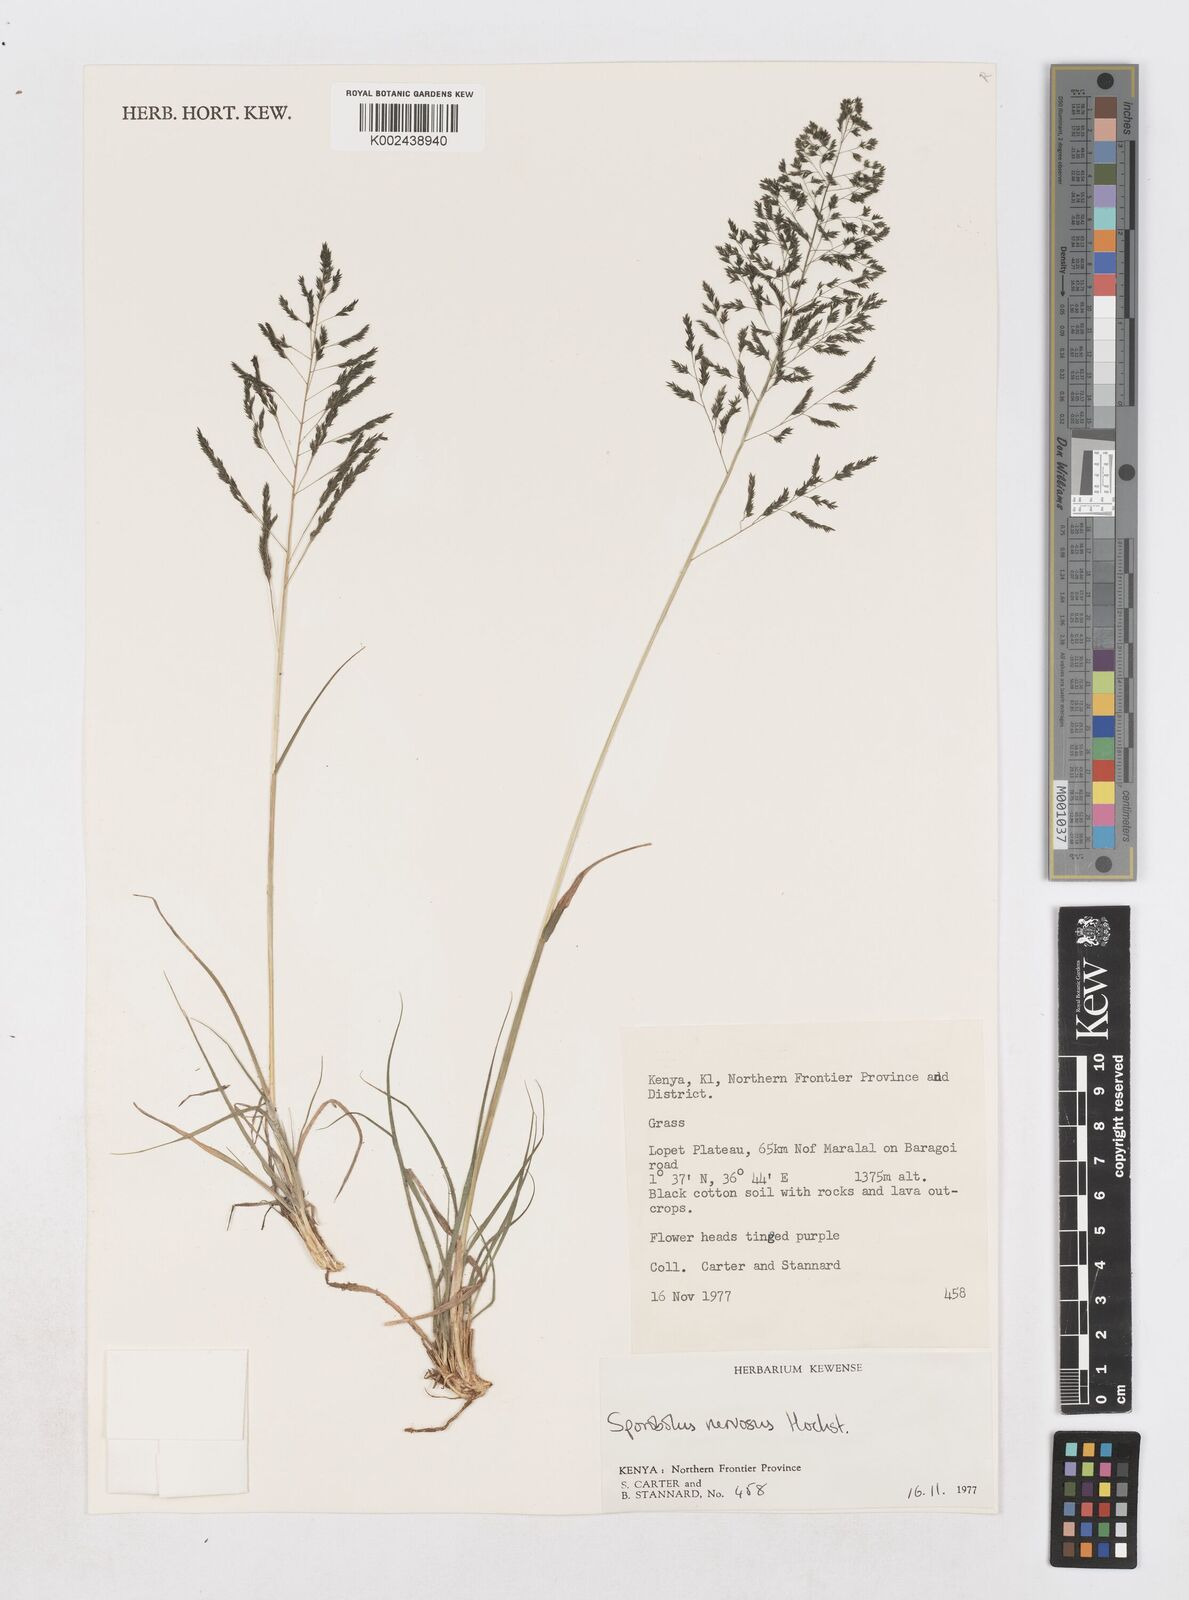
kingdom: Plantae
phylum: Tracheophyta
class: Liliopsida
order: Poales
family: Poaceae
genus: Sporobolus
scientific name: Sporobolus nervosus
